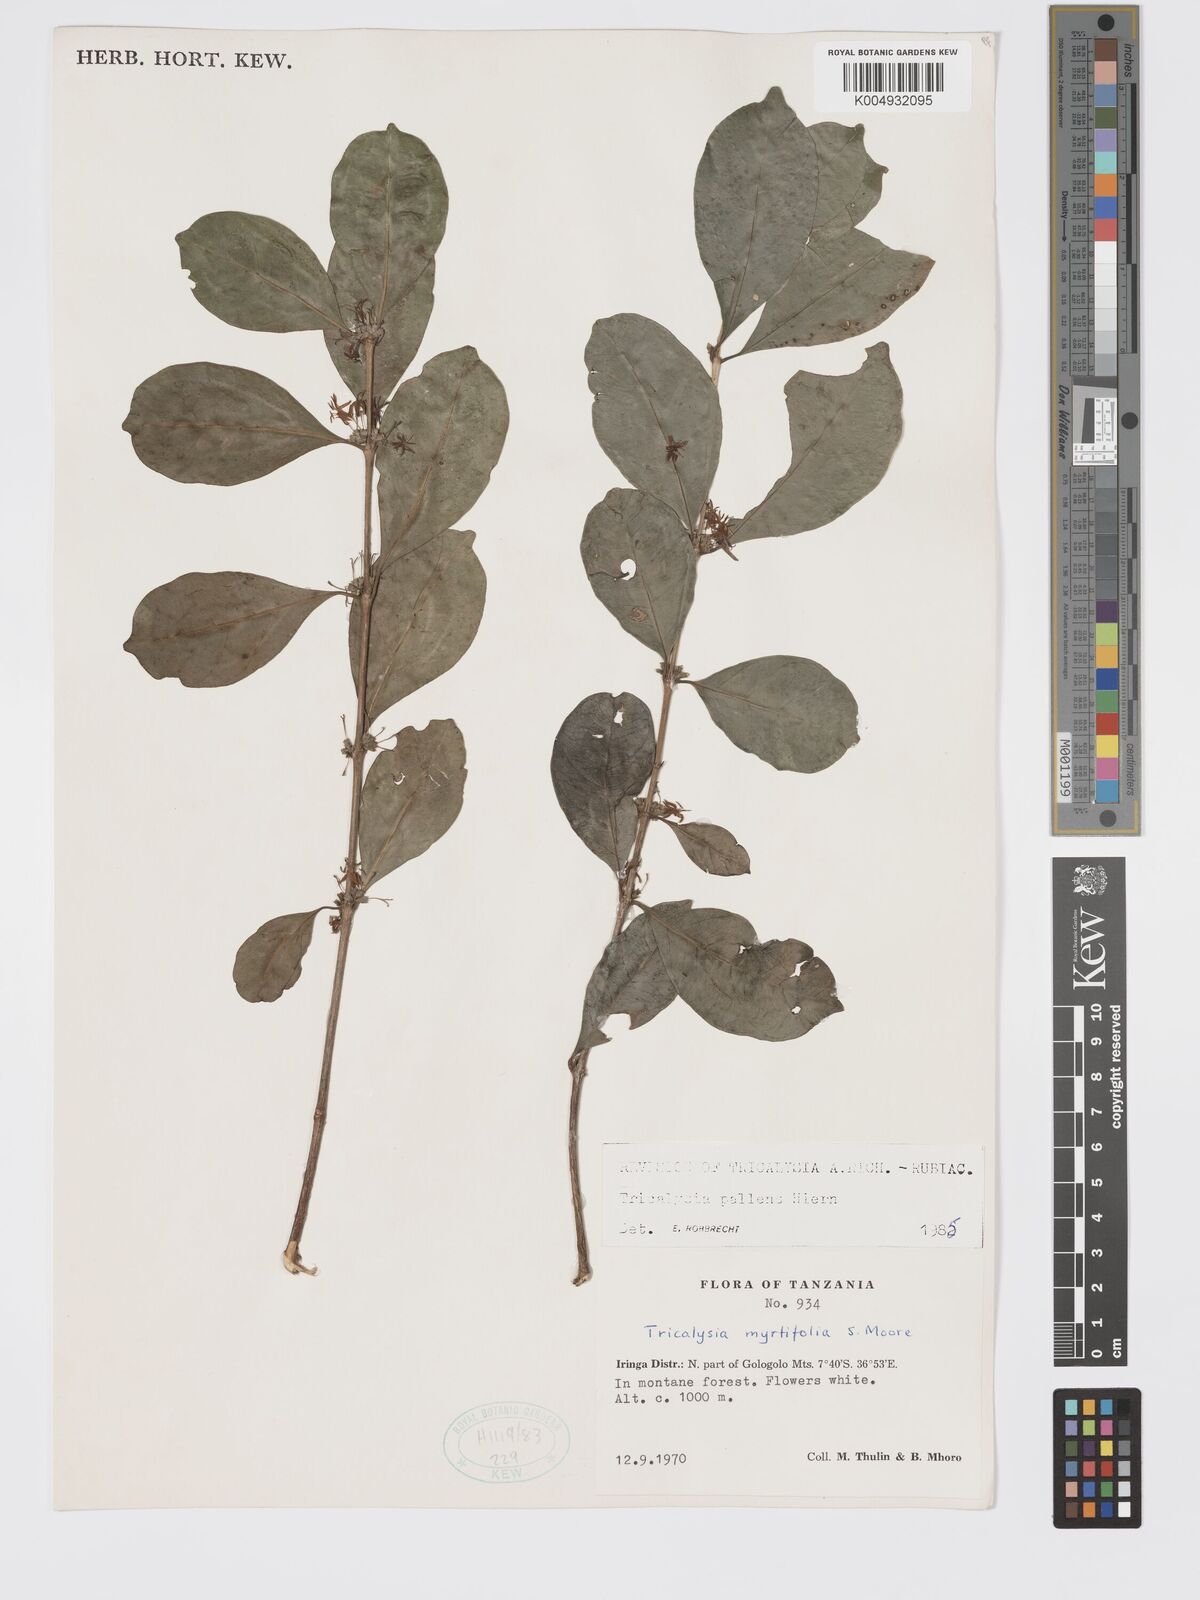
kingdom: Plantae
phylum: Tracheophyta
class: Magnoliopsida
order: Gentianales
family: Rubiaceae
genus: Tricalysia
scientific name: Tricalysia pallens
